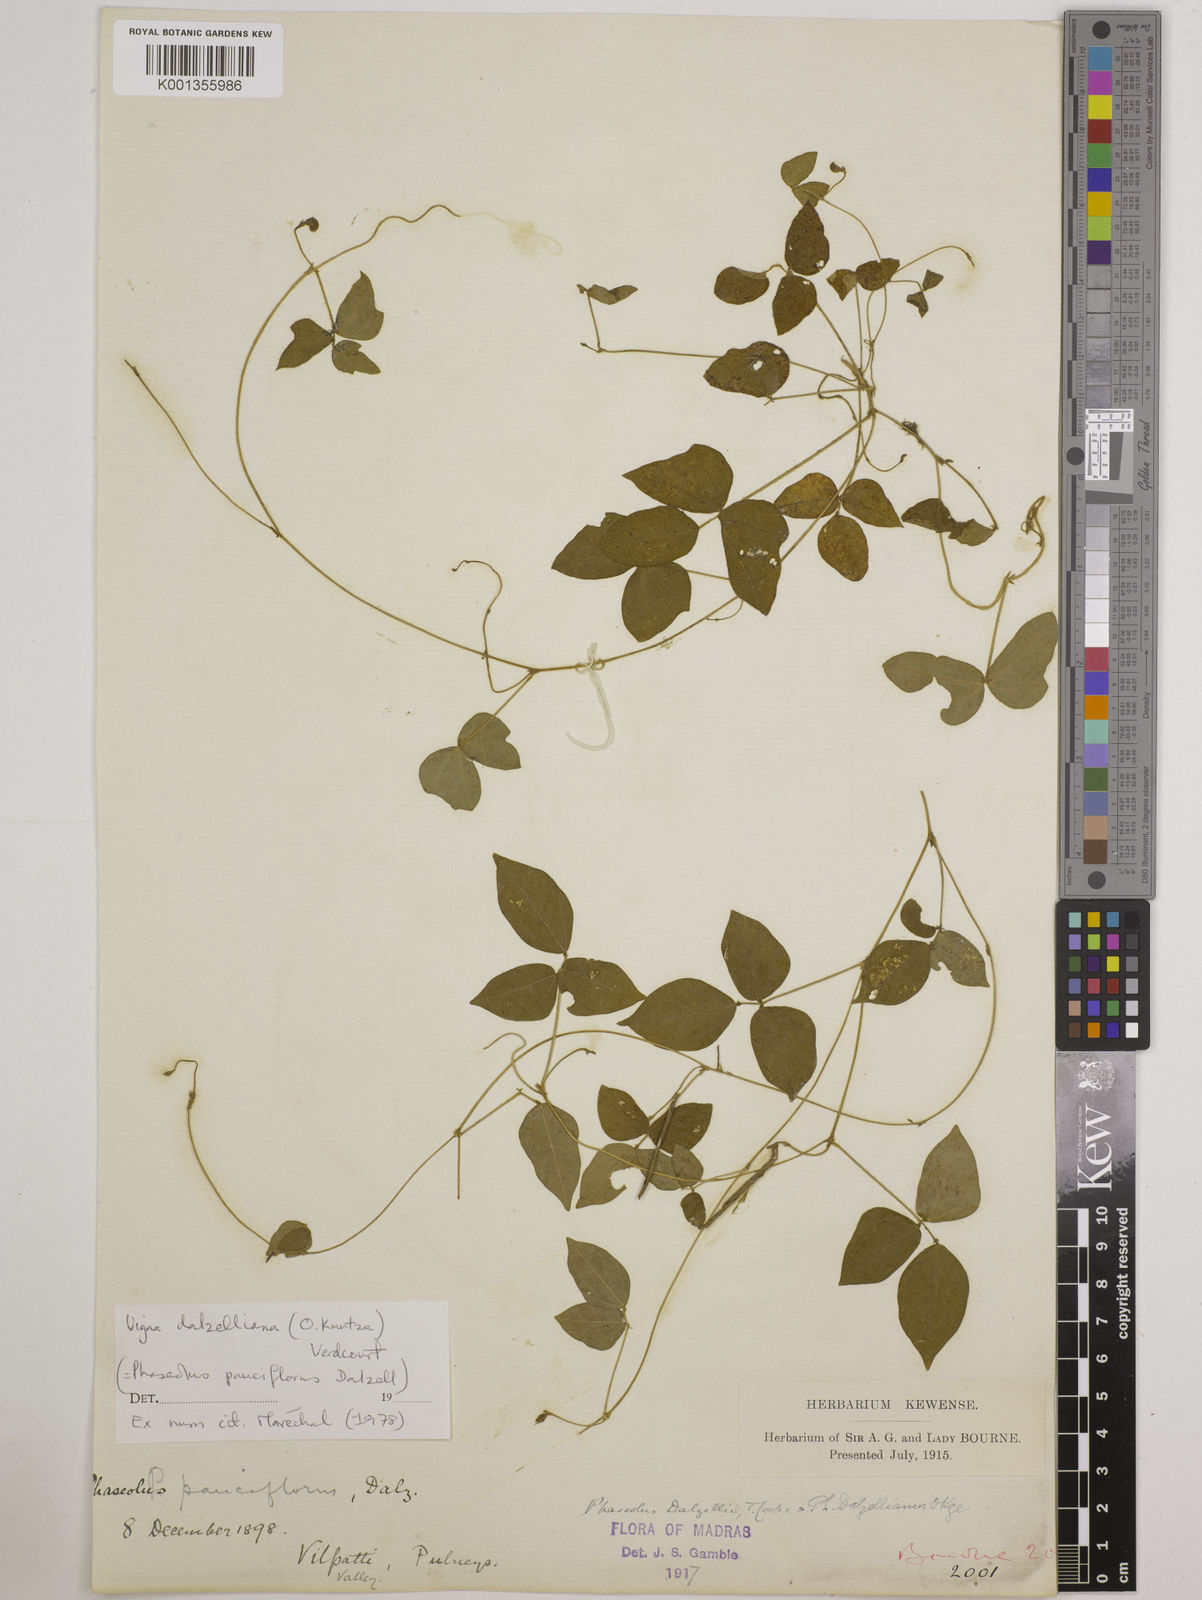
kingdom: Plantae
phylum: Tracheophyta
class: Magnoliopsida
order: Fabales
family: Fabaceae
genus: Vigna
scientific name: Vigna dalzelliana
